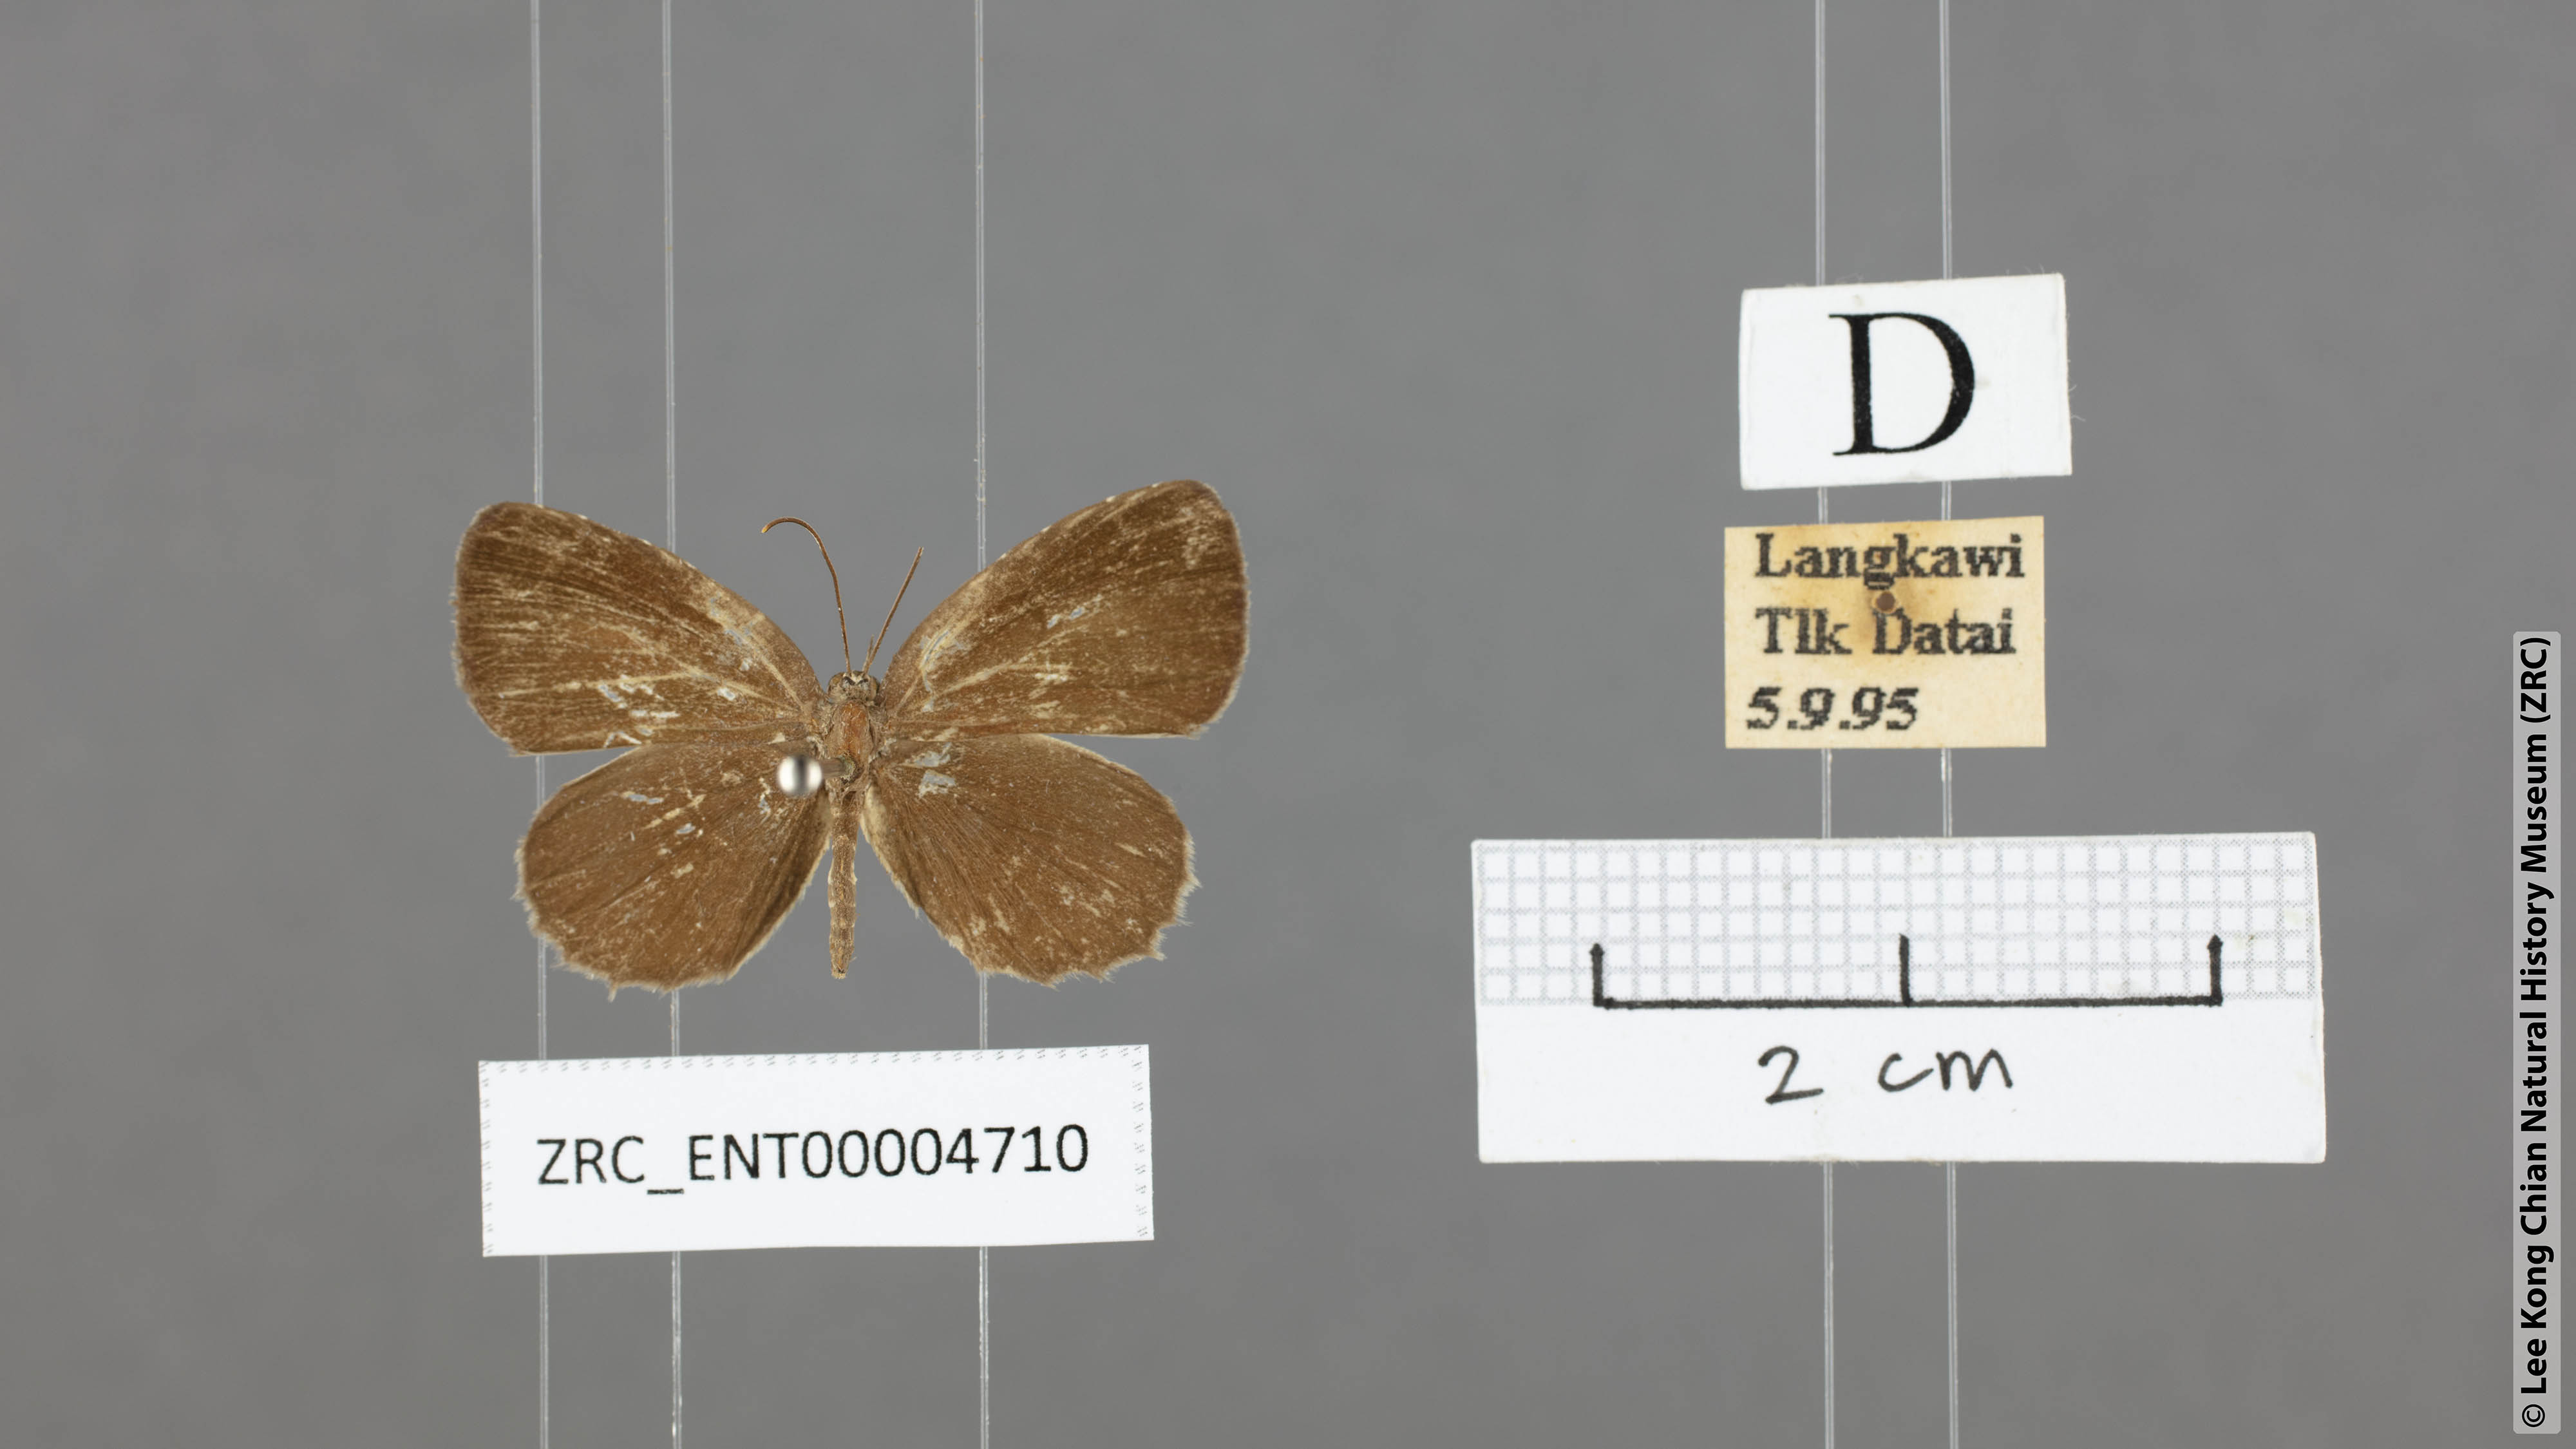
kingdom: Animalia
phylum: Arthropoda
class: Insecta
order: Lepidoptera
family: Lycaenidae
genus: Allotinus
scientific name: Allotinus unicolor
